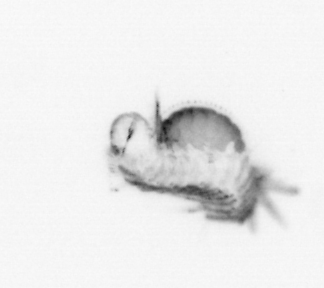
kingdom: Animalia
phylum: Annelida
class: Polychaeta
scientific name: Polychaeta
